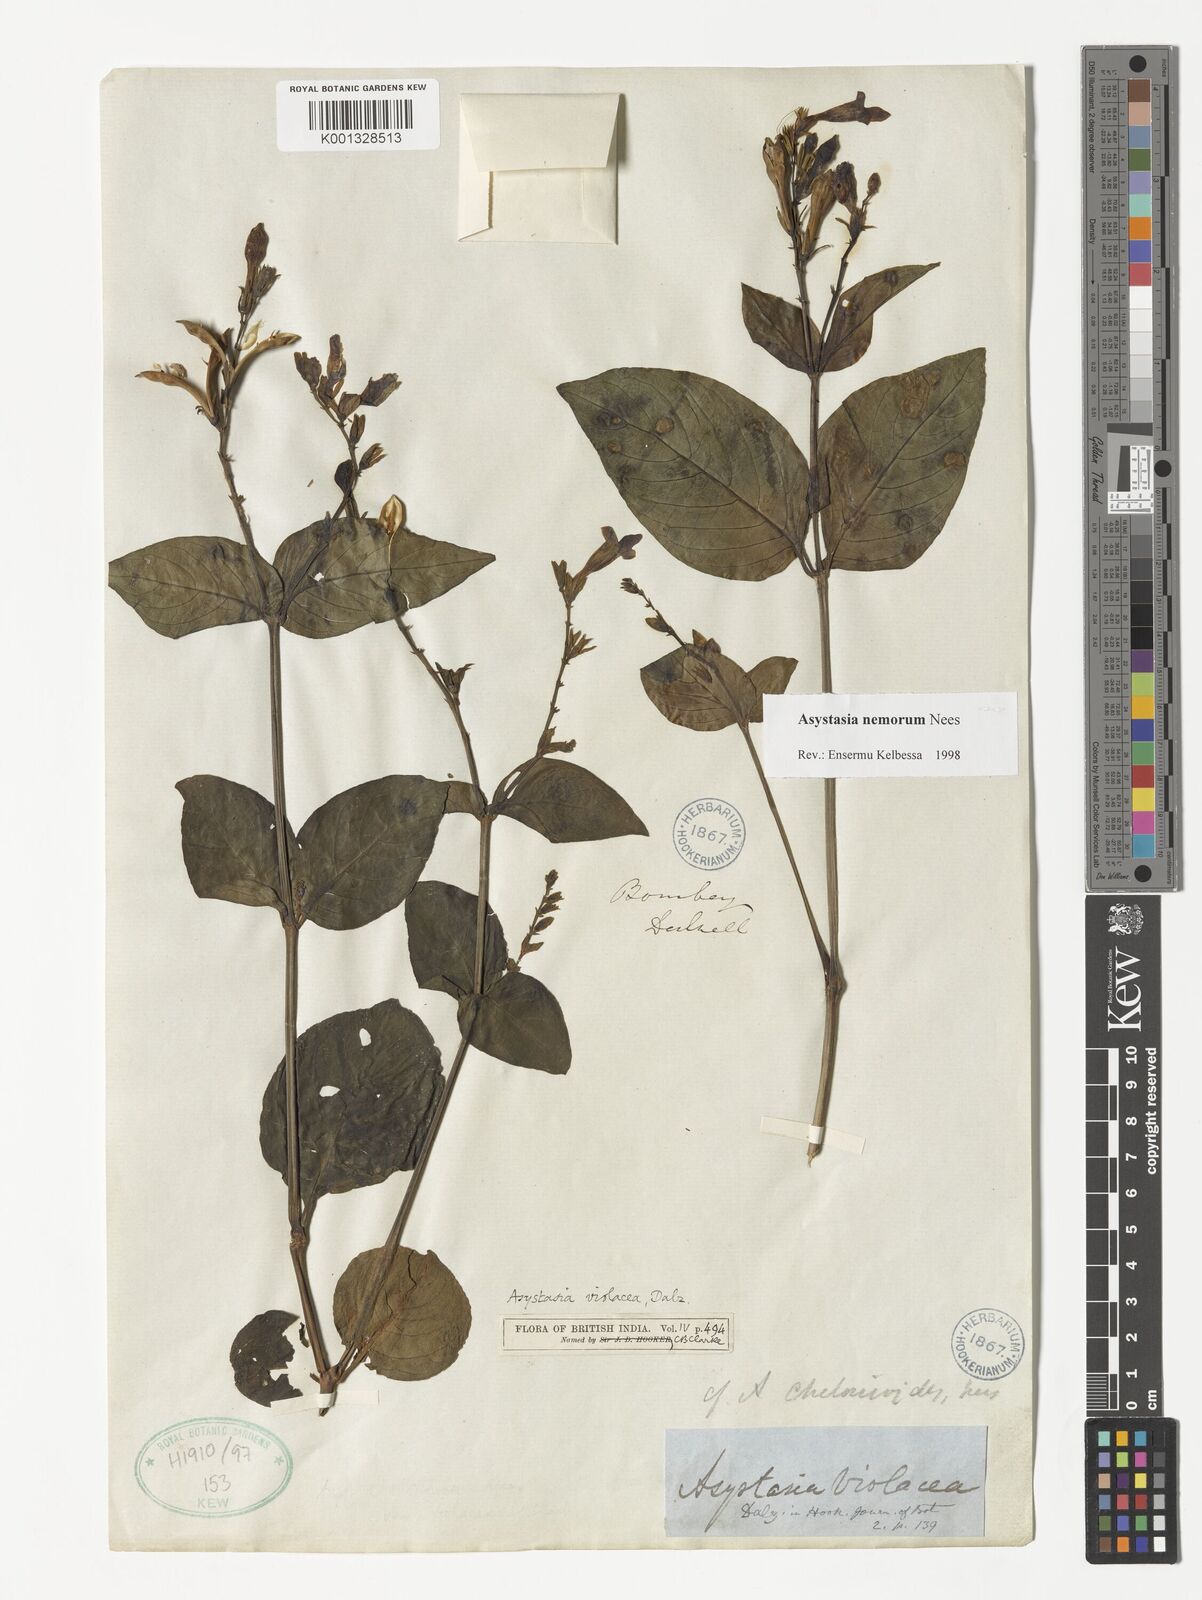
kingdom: Plantae
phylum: Tracheophyta
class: Magnoliopsida
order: Lamiales
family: Acanthaceae
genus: Asystasia
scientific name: Asystasia nemorum
